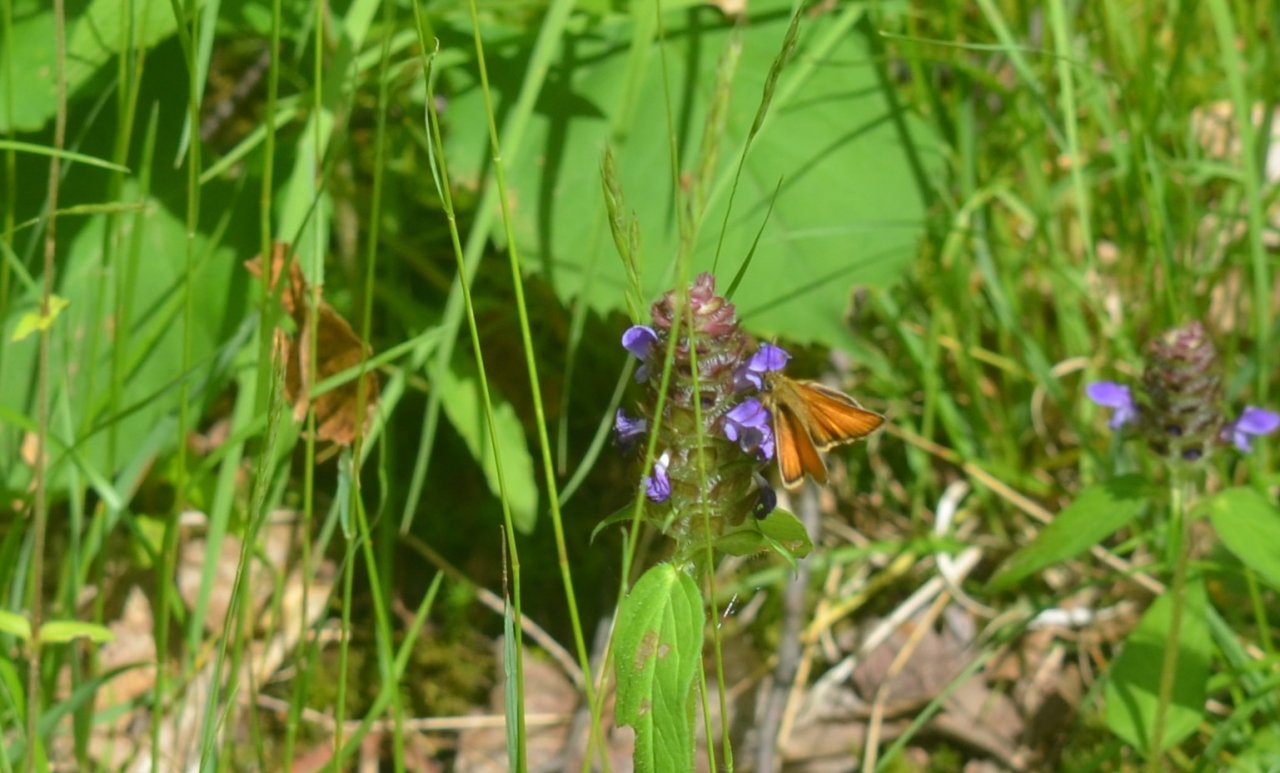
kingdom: Animalia
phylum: Arthropoda
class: Insecta
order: Lepidoptera
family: Hesperiidae
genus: Thymelicus
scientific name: Thymelicus lineola
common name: European Skipper
